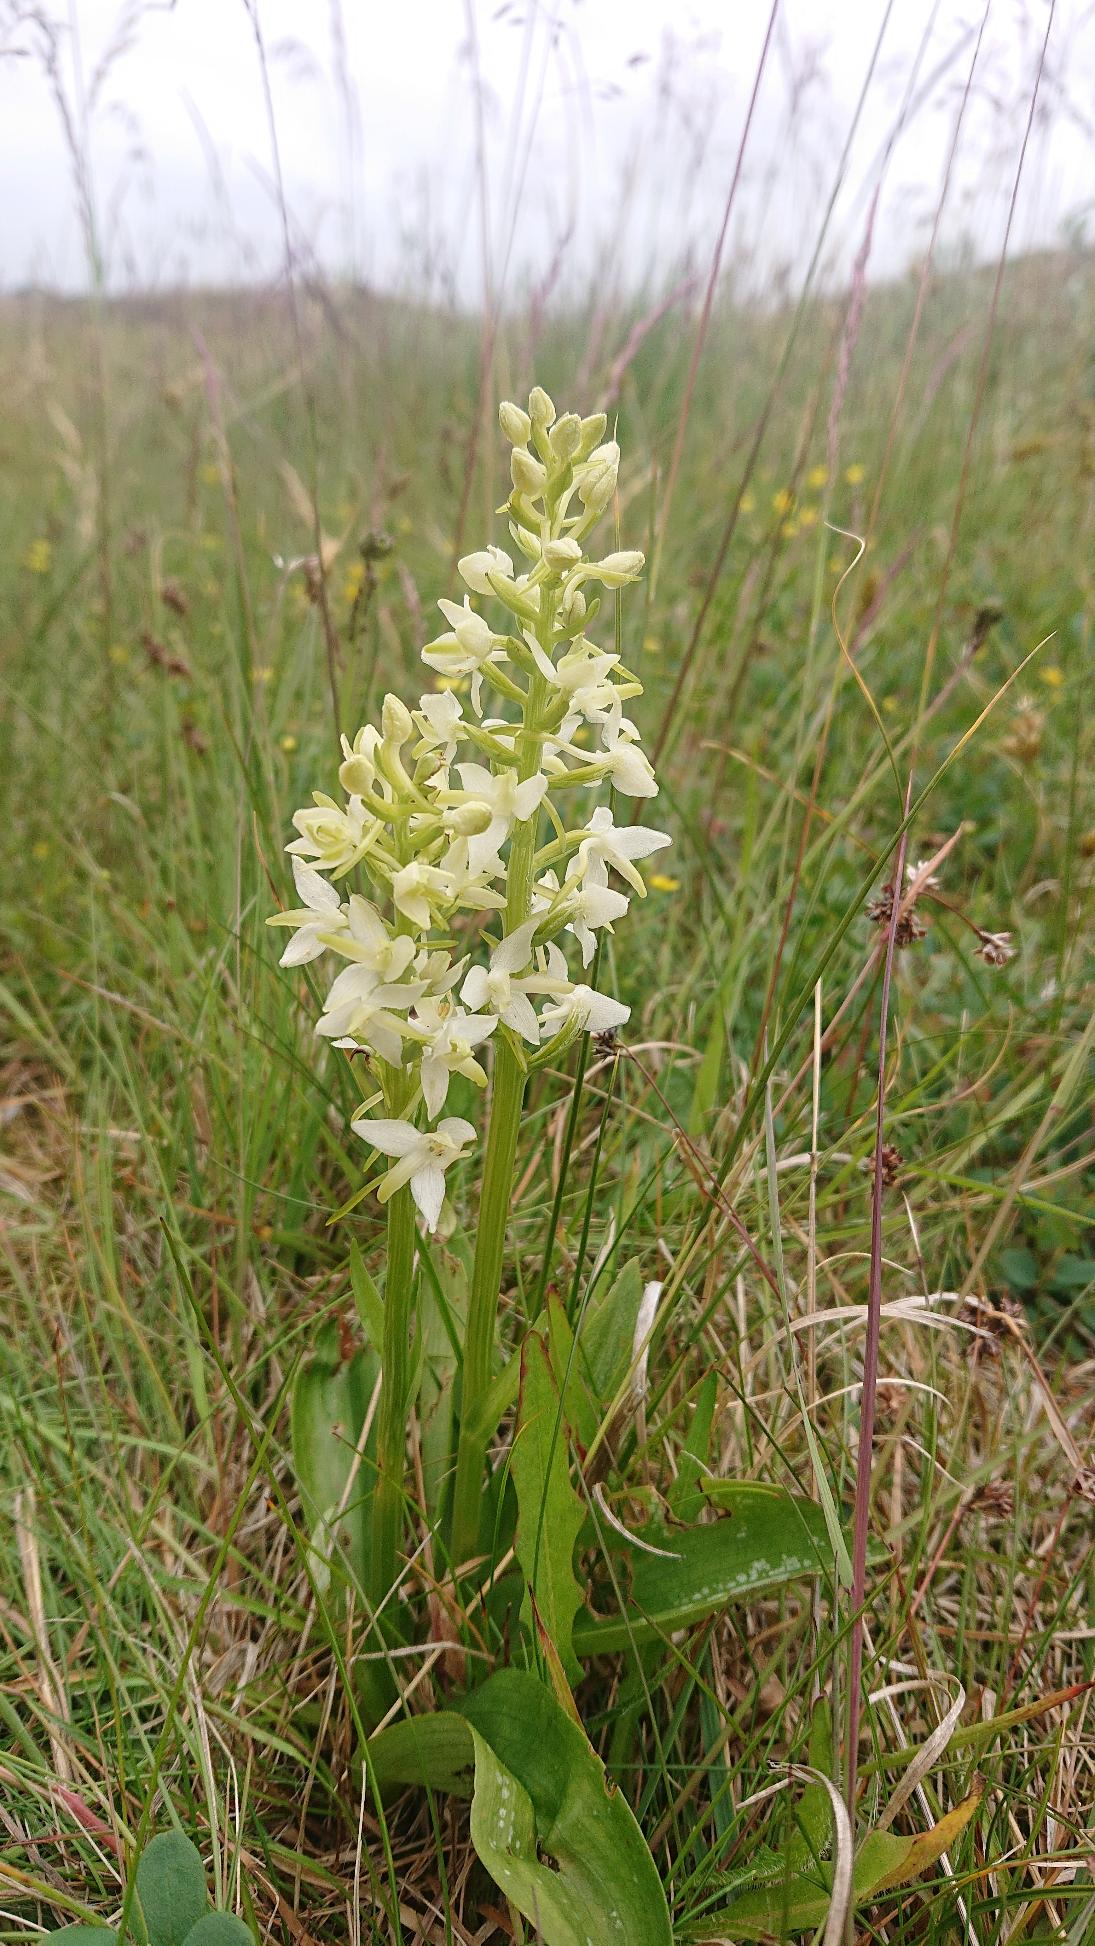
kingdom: Plantae
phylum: Tracheophyta
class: Liliopsida
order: Asparagales
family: Orchidaceae
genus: Platanthera
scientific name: Platanthera bifolia
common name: Bakke-gøgelilje
